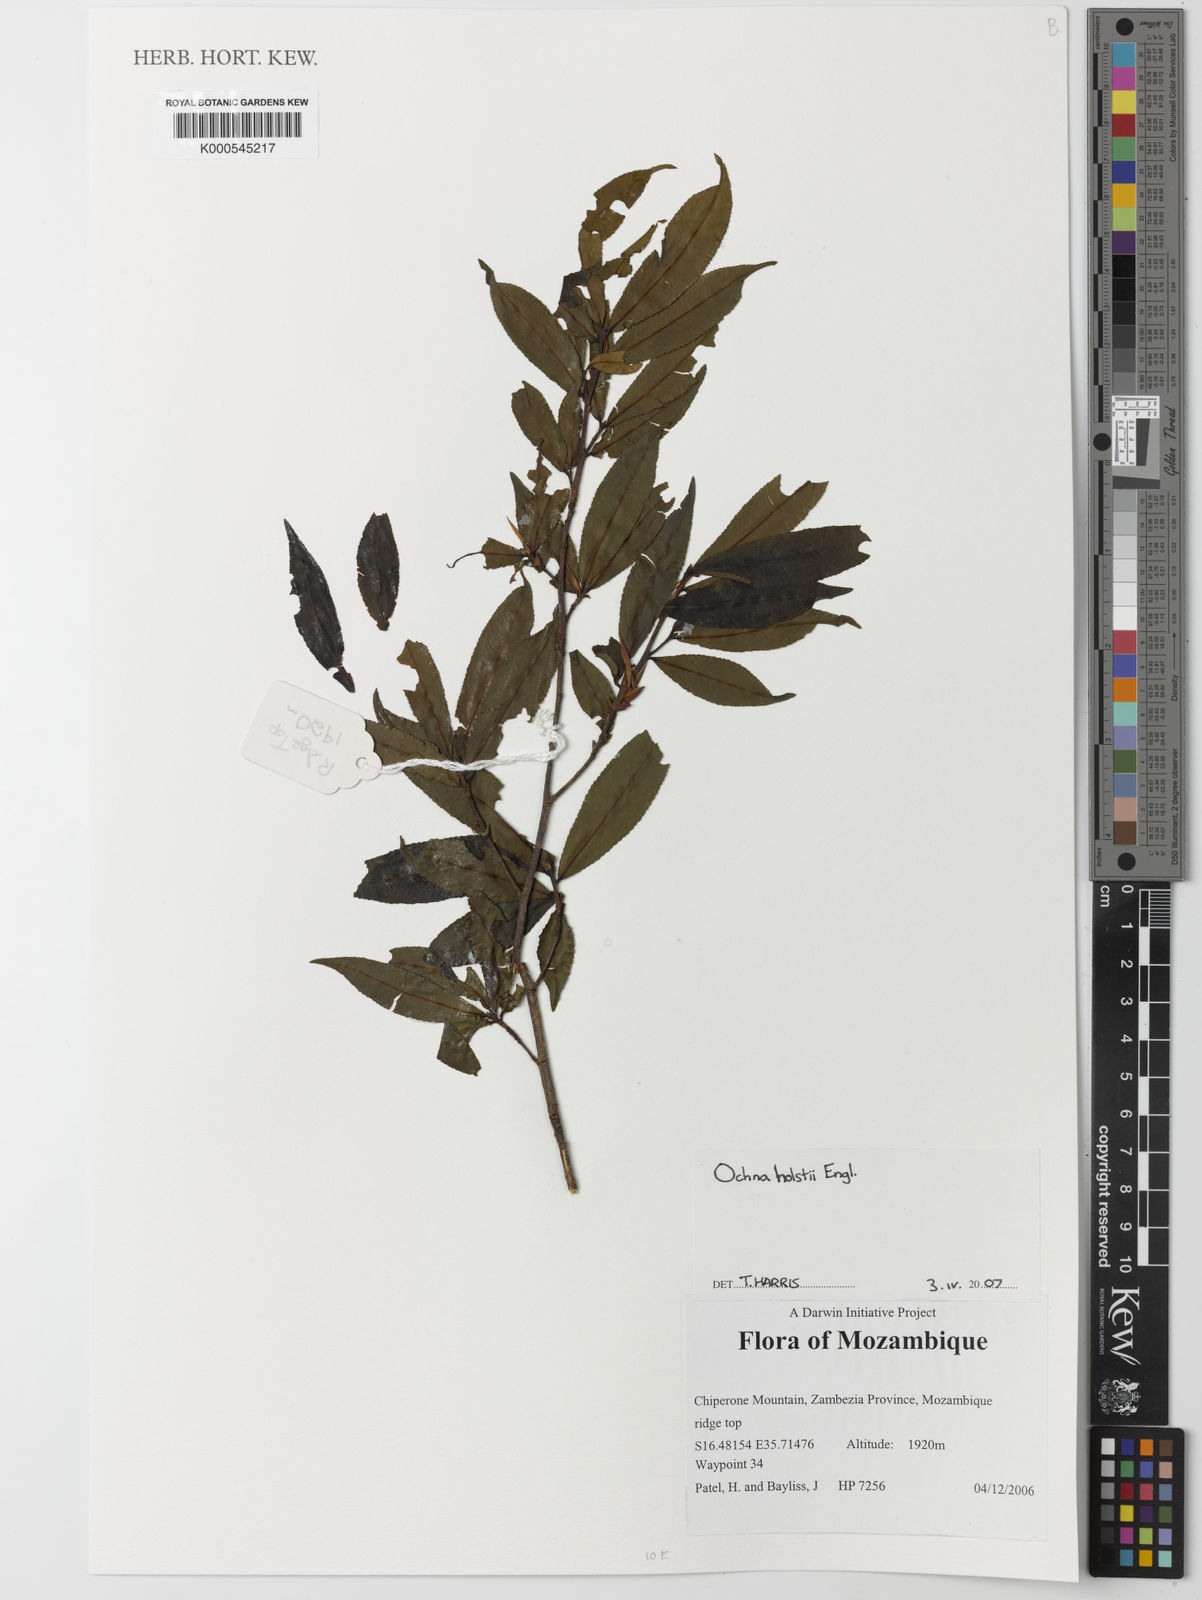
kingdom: Plantae
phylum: Tracheophyta
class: Magnoliopsida
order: Malpighiales
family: Ochnaceae
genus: Ochna
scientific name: Ochna holstii
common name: Red ironwood
